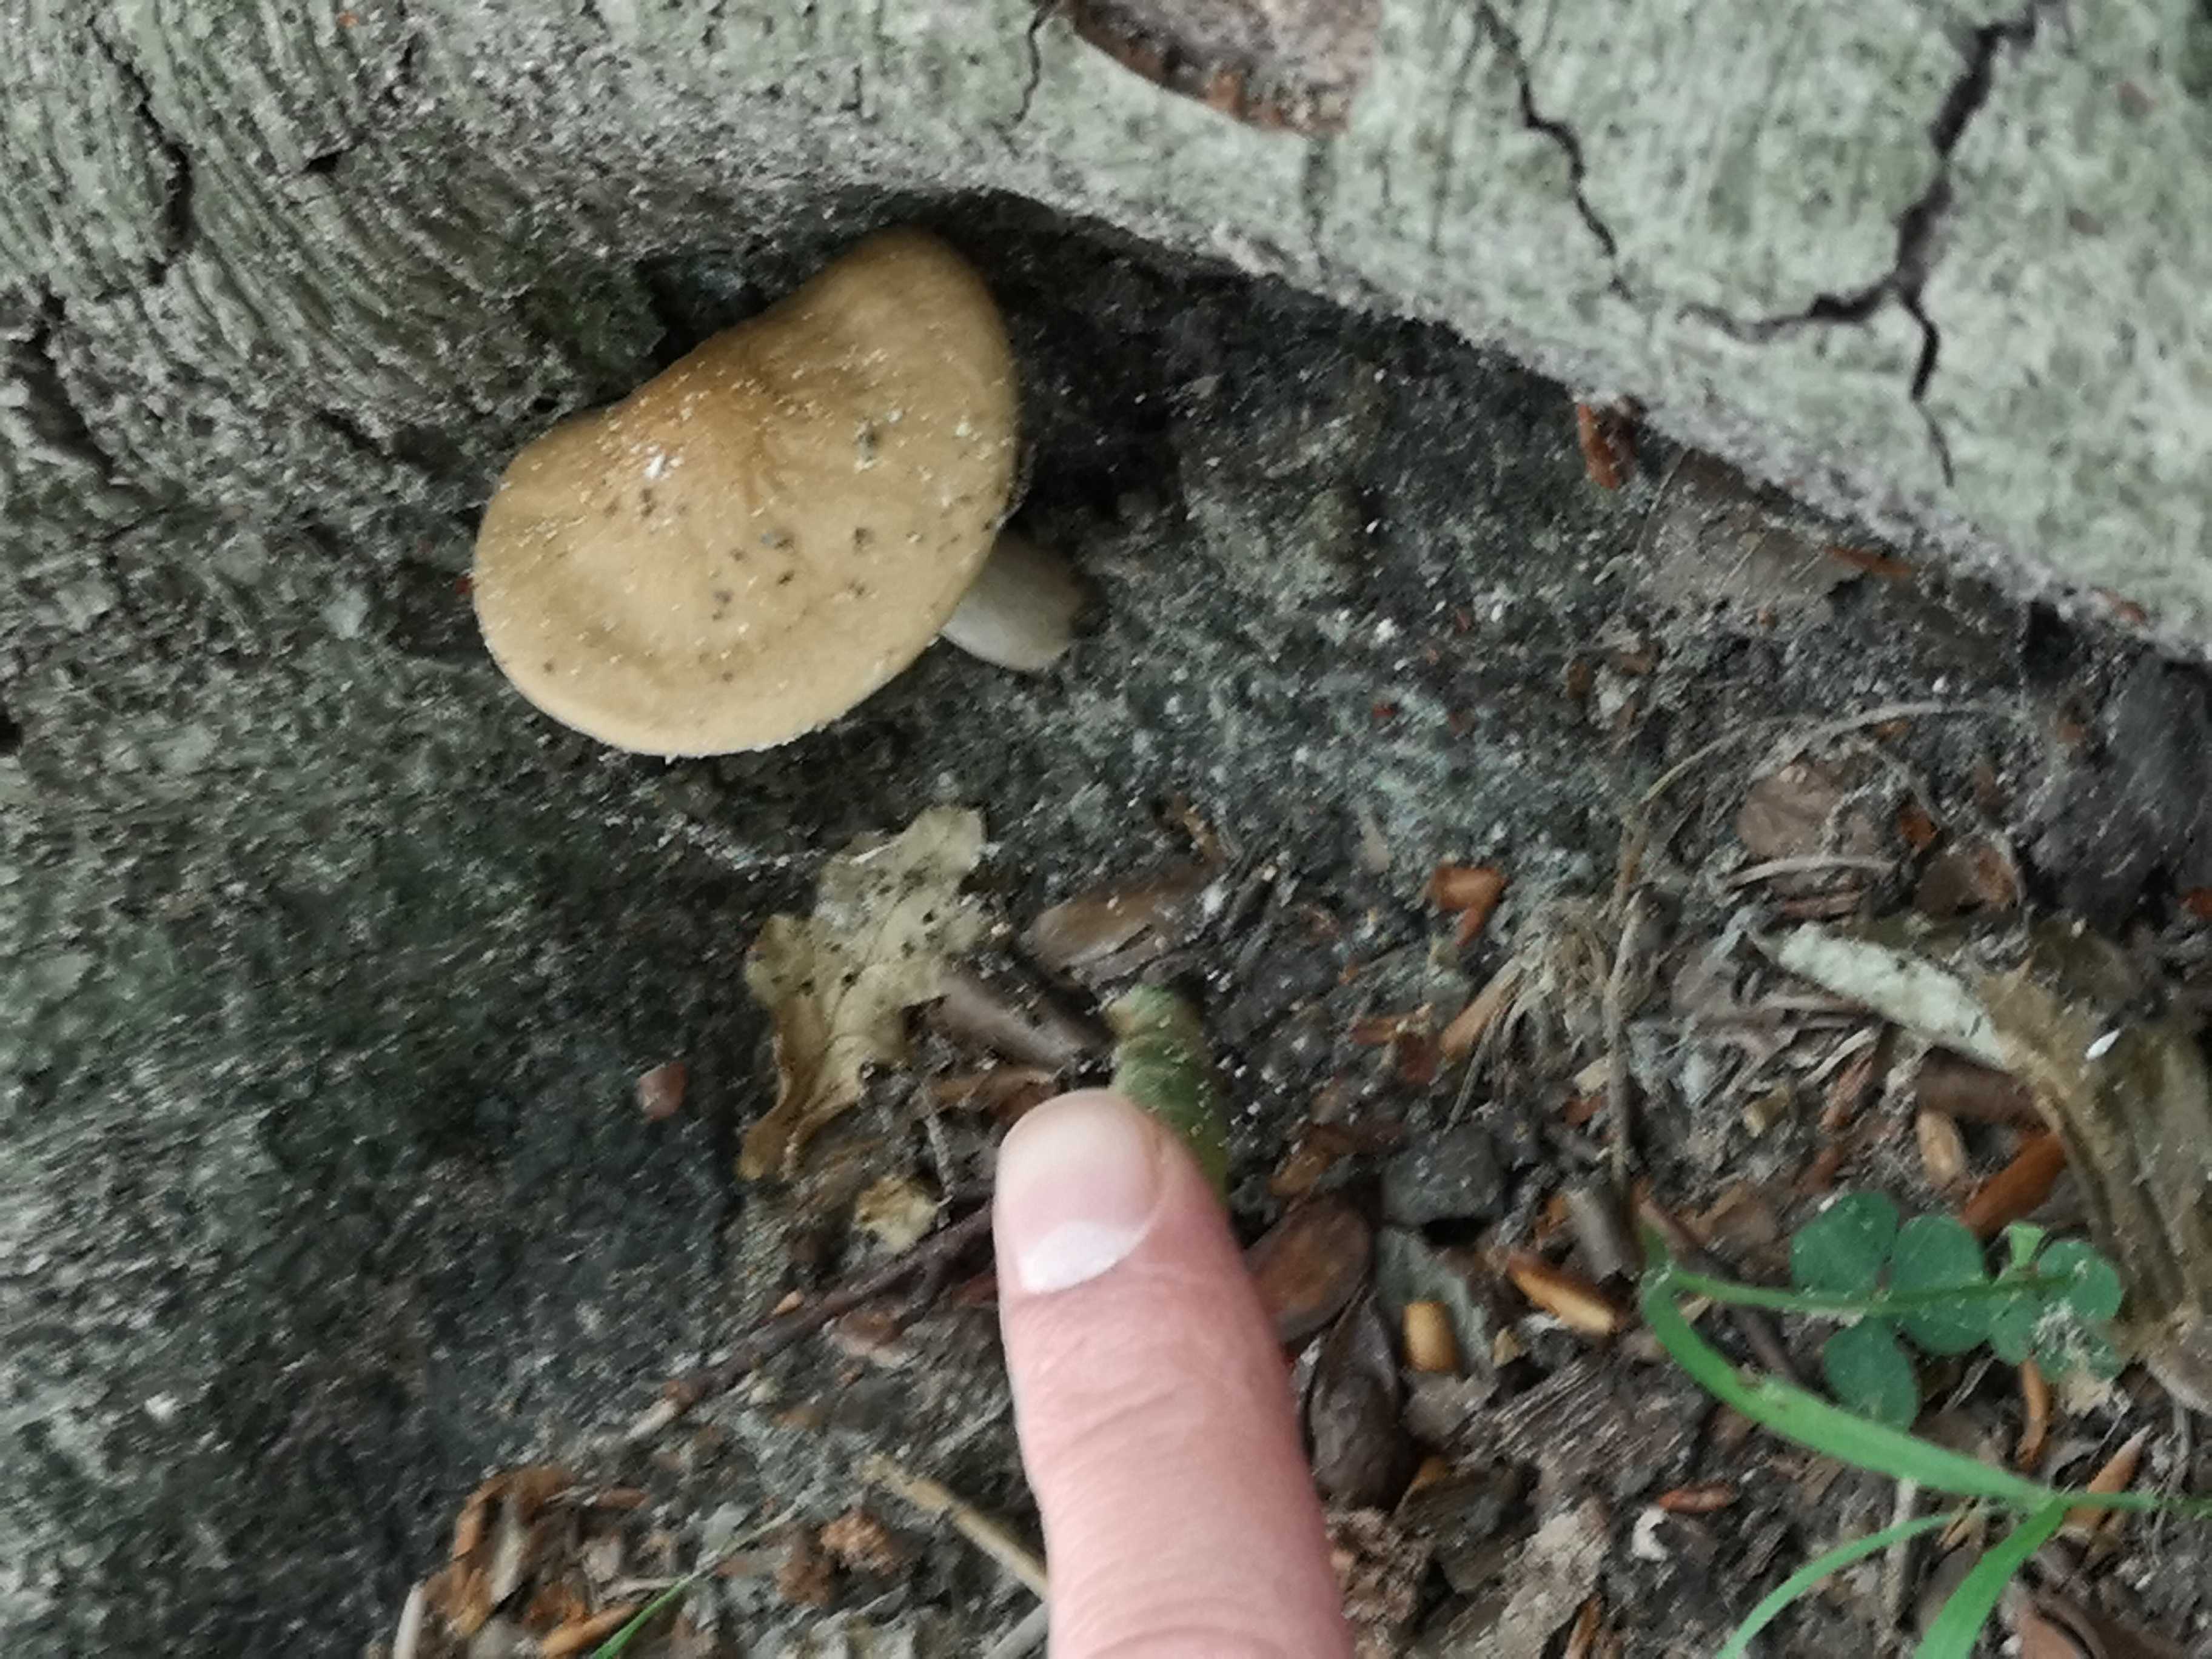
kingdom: Fungi
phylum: Basidiomycota
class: Agaricomycetes
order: Agaricales
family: Physalacriaceae
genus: Hymenopellis
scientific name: Hymenopellis radicata
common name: almindelig pælerodshat
